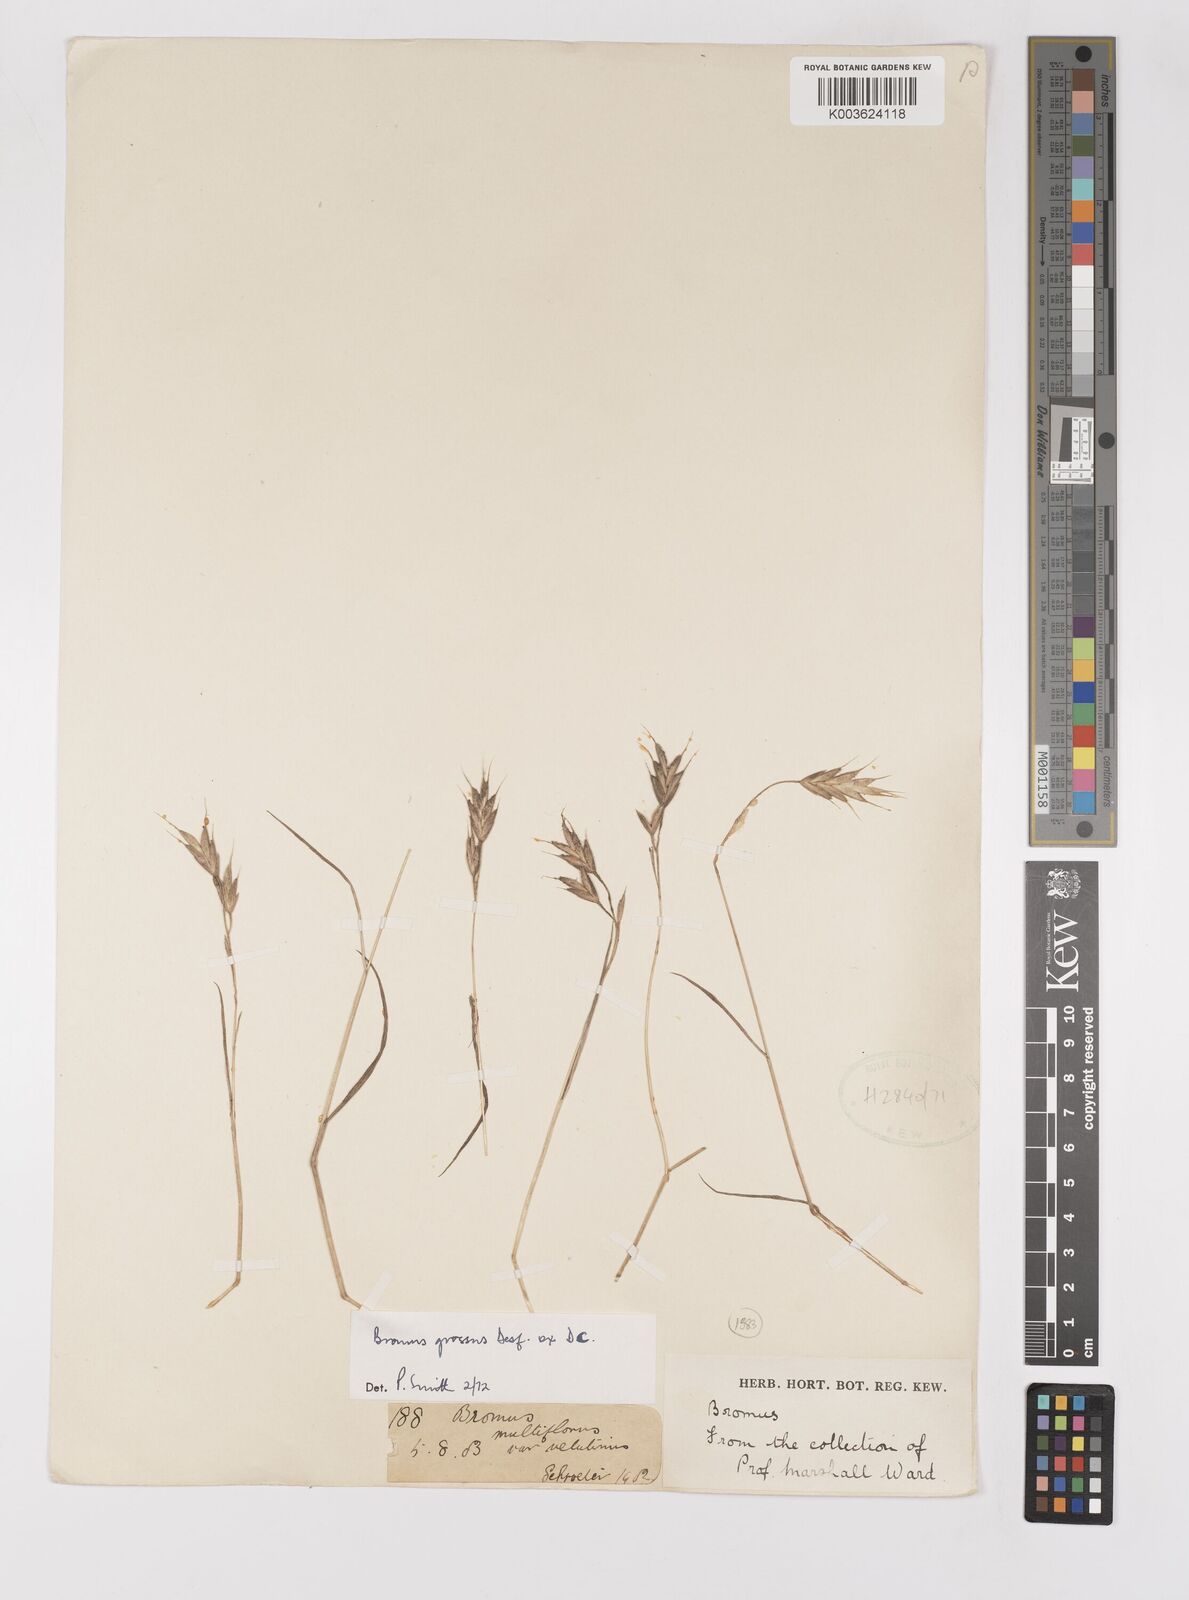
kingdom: Plantae
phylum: Tracheophyta
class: Liliopsida
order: Poales
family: Poaceae
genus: Bromus
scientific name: Bromus grossus
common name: Whiskered brome
